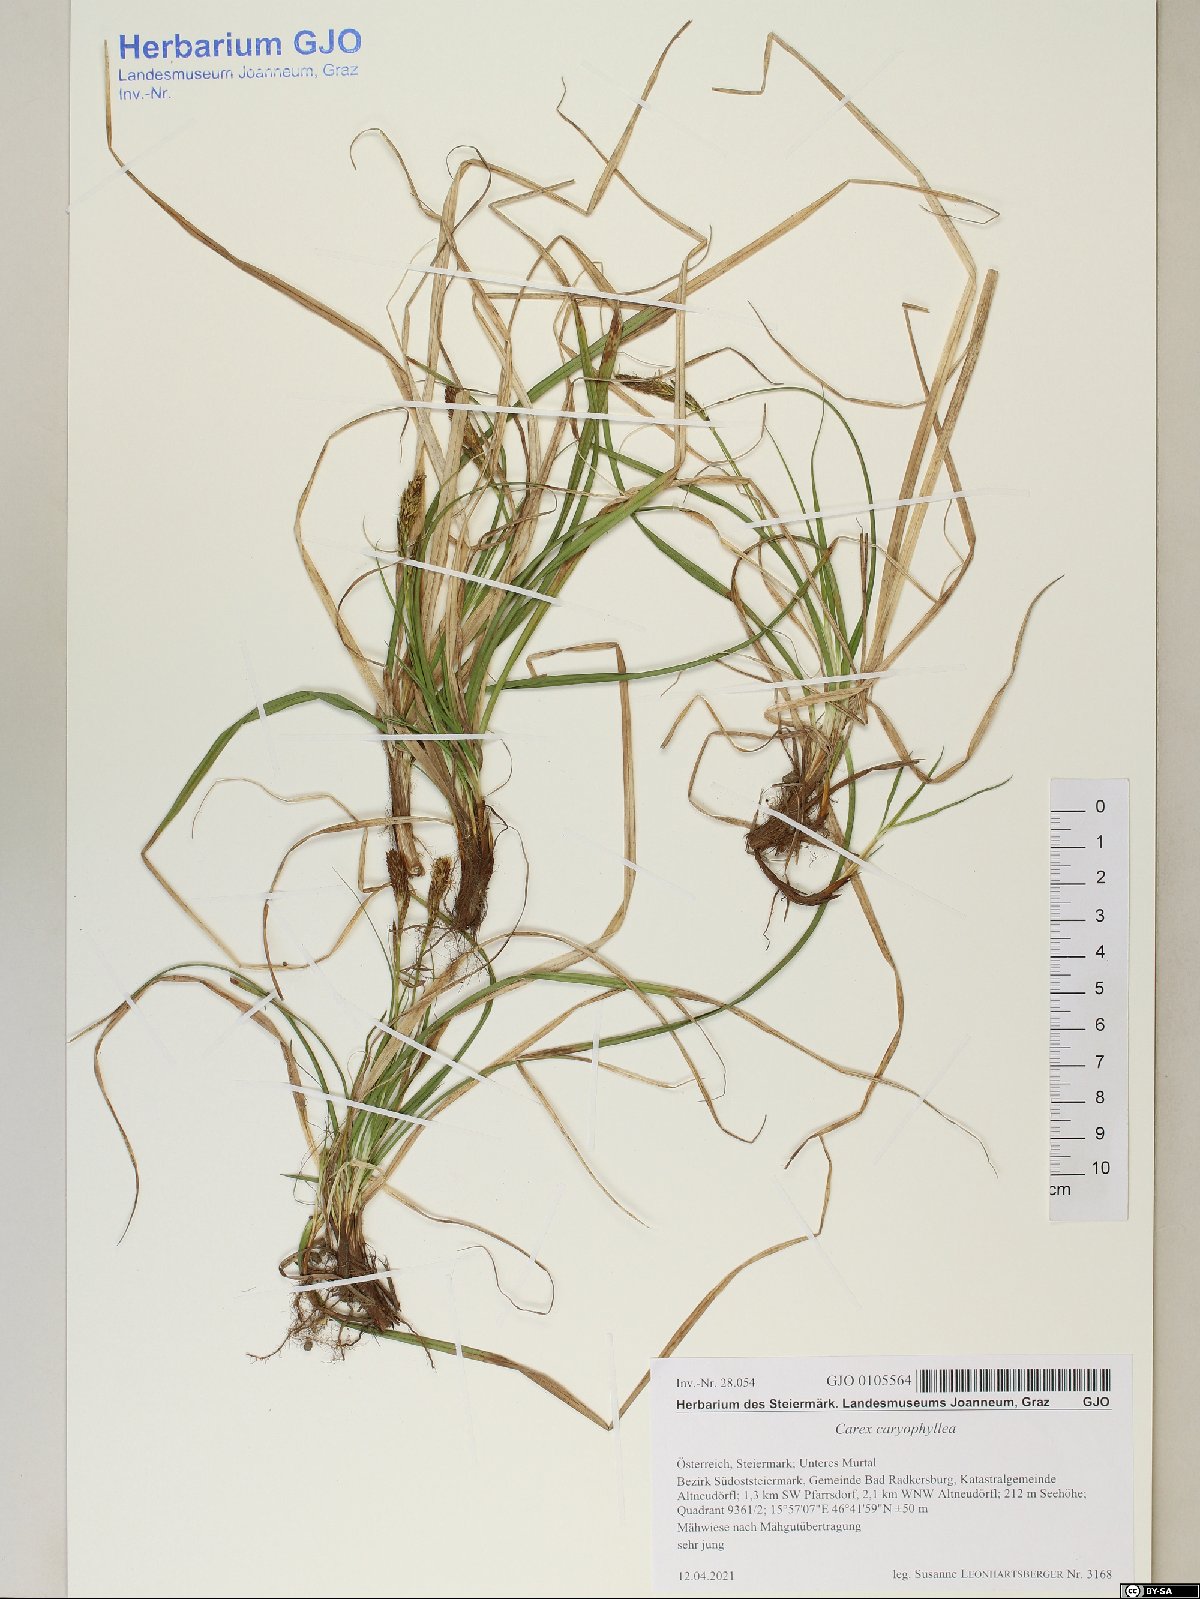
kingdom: Plantae
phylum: Tracheophyta
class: Liliopsida
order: Poales
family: Cyperaceae
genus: Carex
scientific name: Carex caryophyllea
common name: Spring sedge
